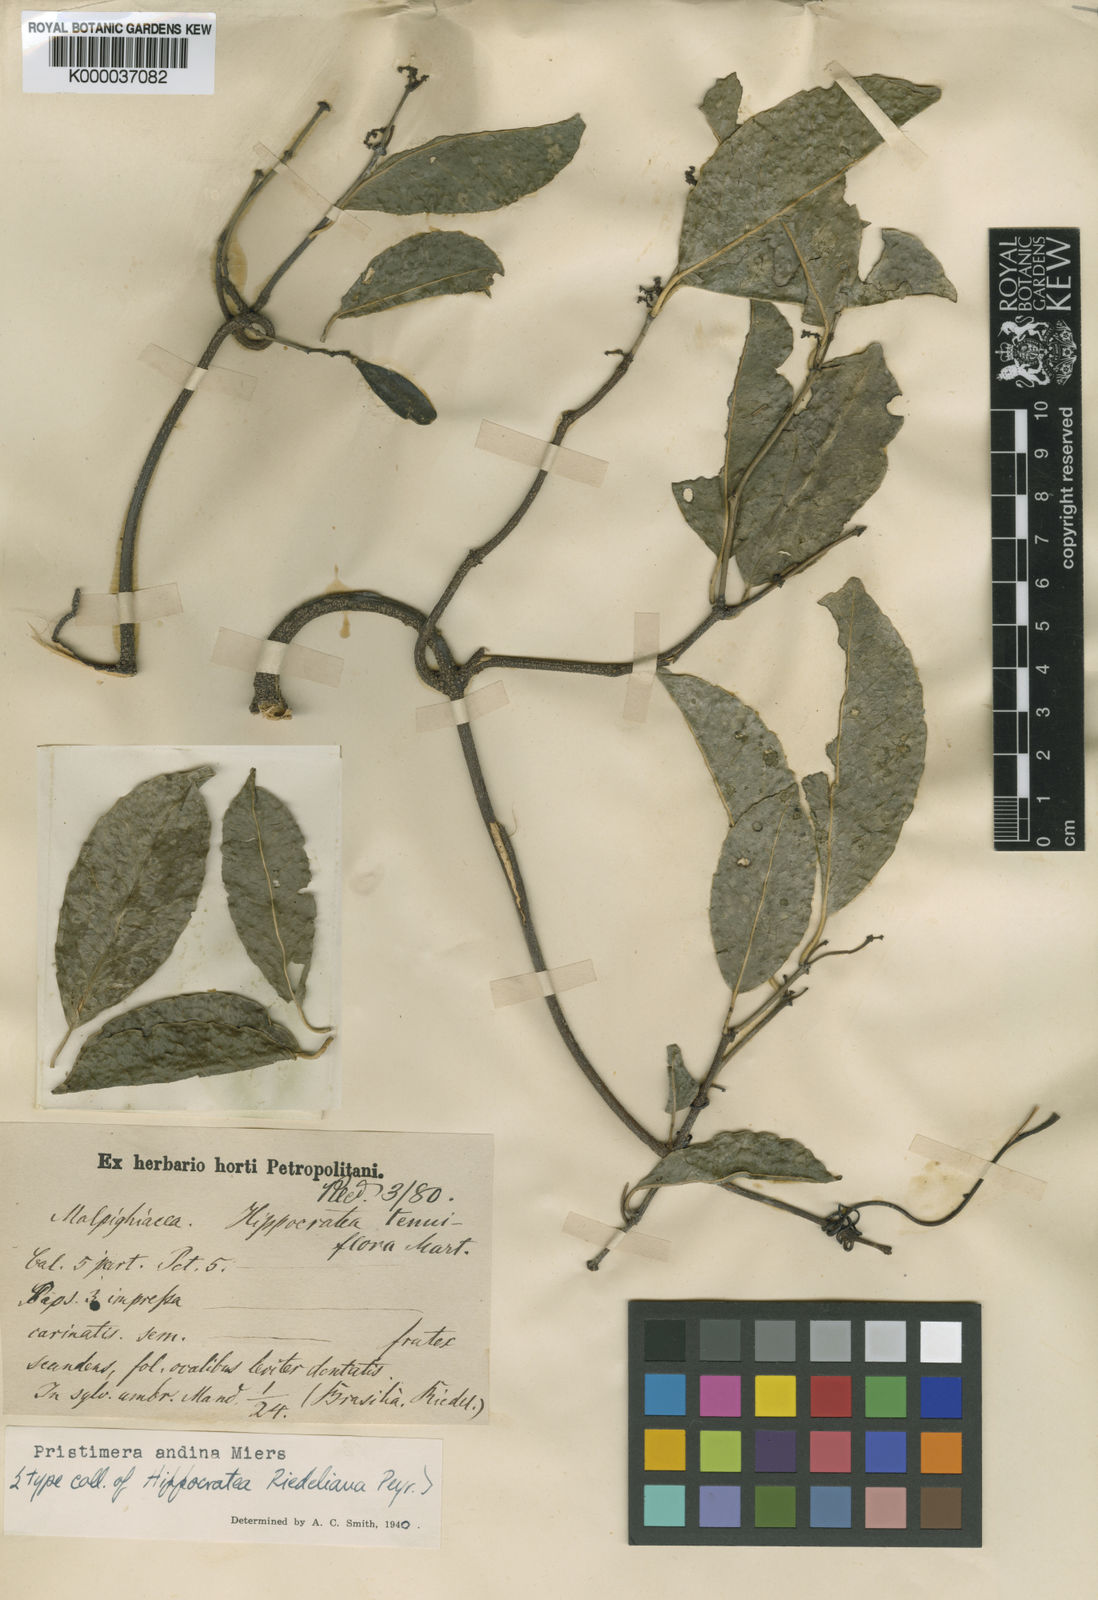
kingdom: Plantae
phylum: Tracheophyta
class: Magnoliopsida
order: Celastrales
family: Celastraceae
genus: Pristimera
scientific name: Pristimera celastroides
